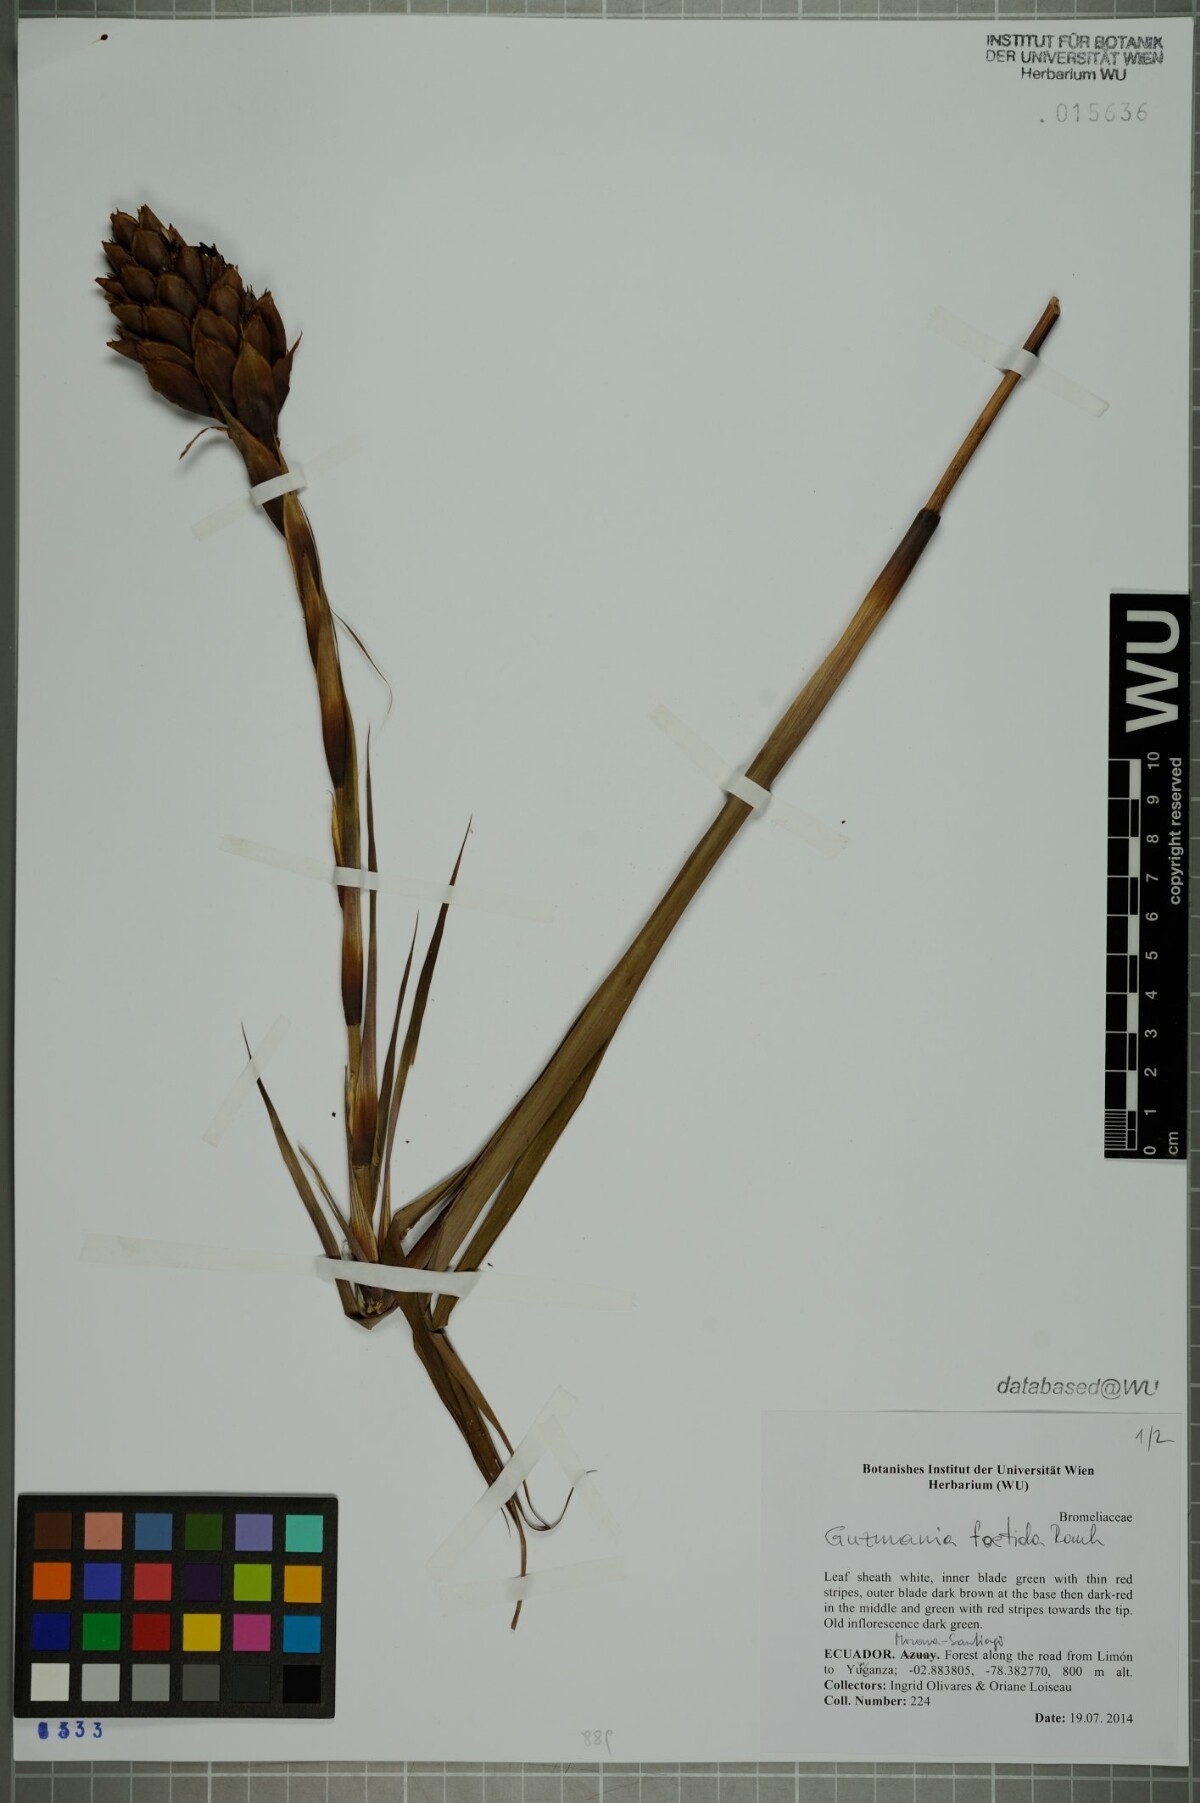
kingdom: Plantae
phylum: Tracheophyta
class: Liliopsida
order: Poales
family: Bromeliaceae
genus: Guzmania
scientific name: Guzmania foetida
